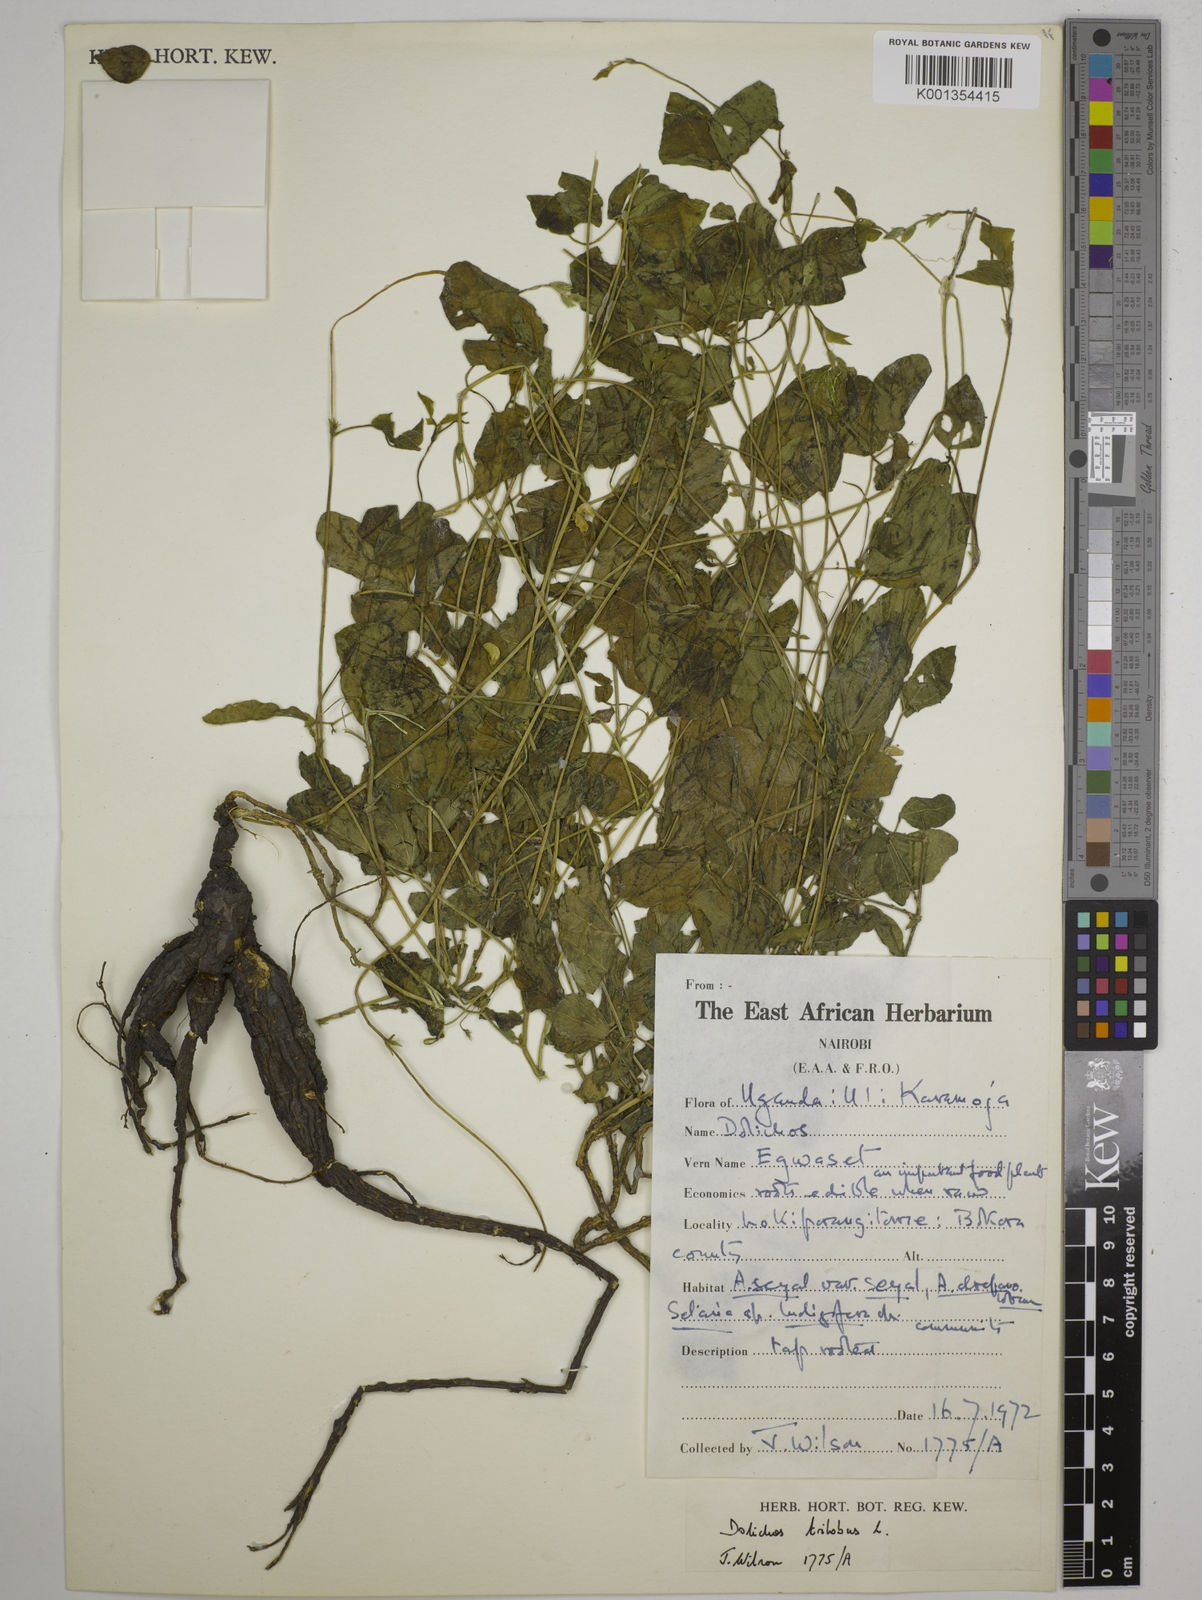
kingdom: Plantae
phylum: Tracheophyta
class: Magnoliopsida
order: Fabales
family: Fabaceae
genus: Dolichos
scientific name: Dolichos
